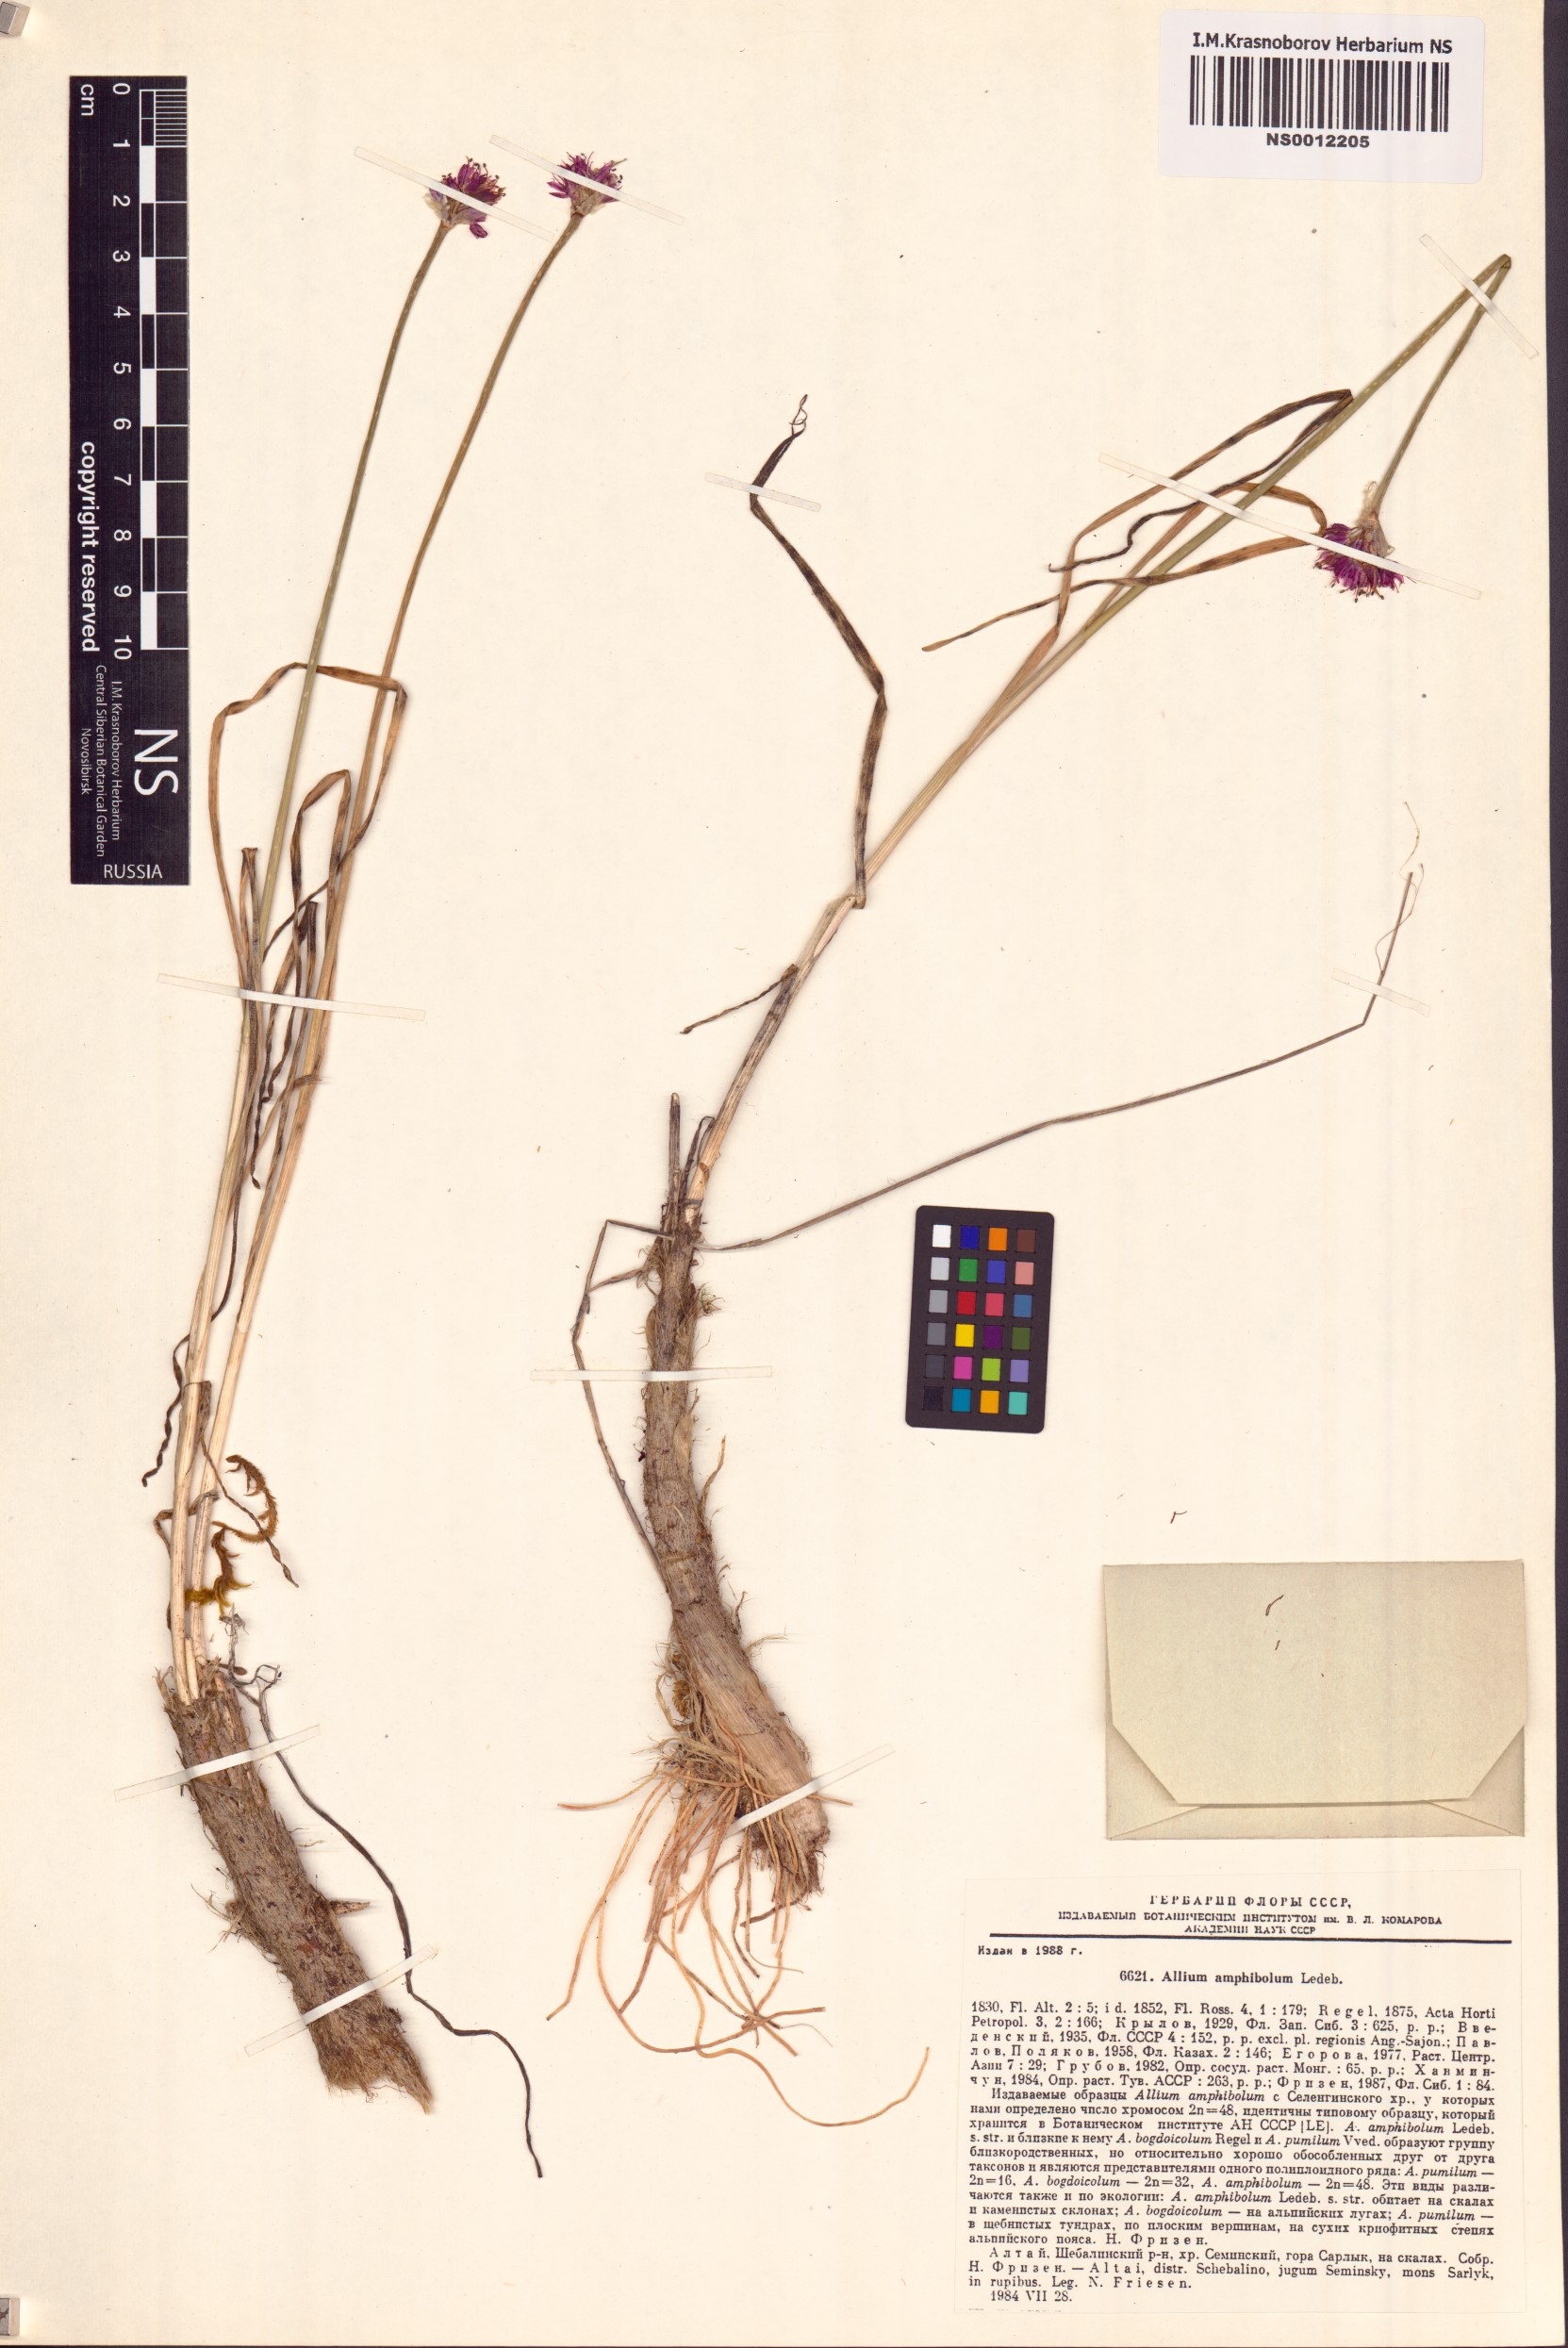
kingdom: Plantae
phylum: Tracheophyta
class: Liliopsida
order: Asparagales
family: Amaryllidaceae
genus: Allium
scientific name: Allium amphibolum
